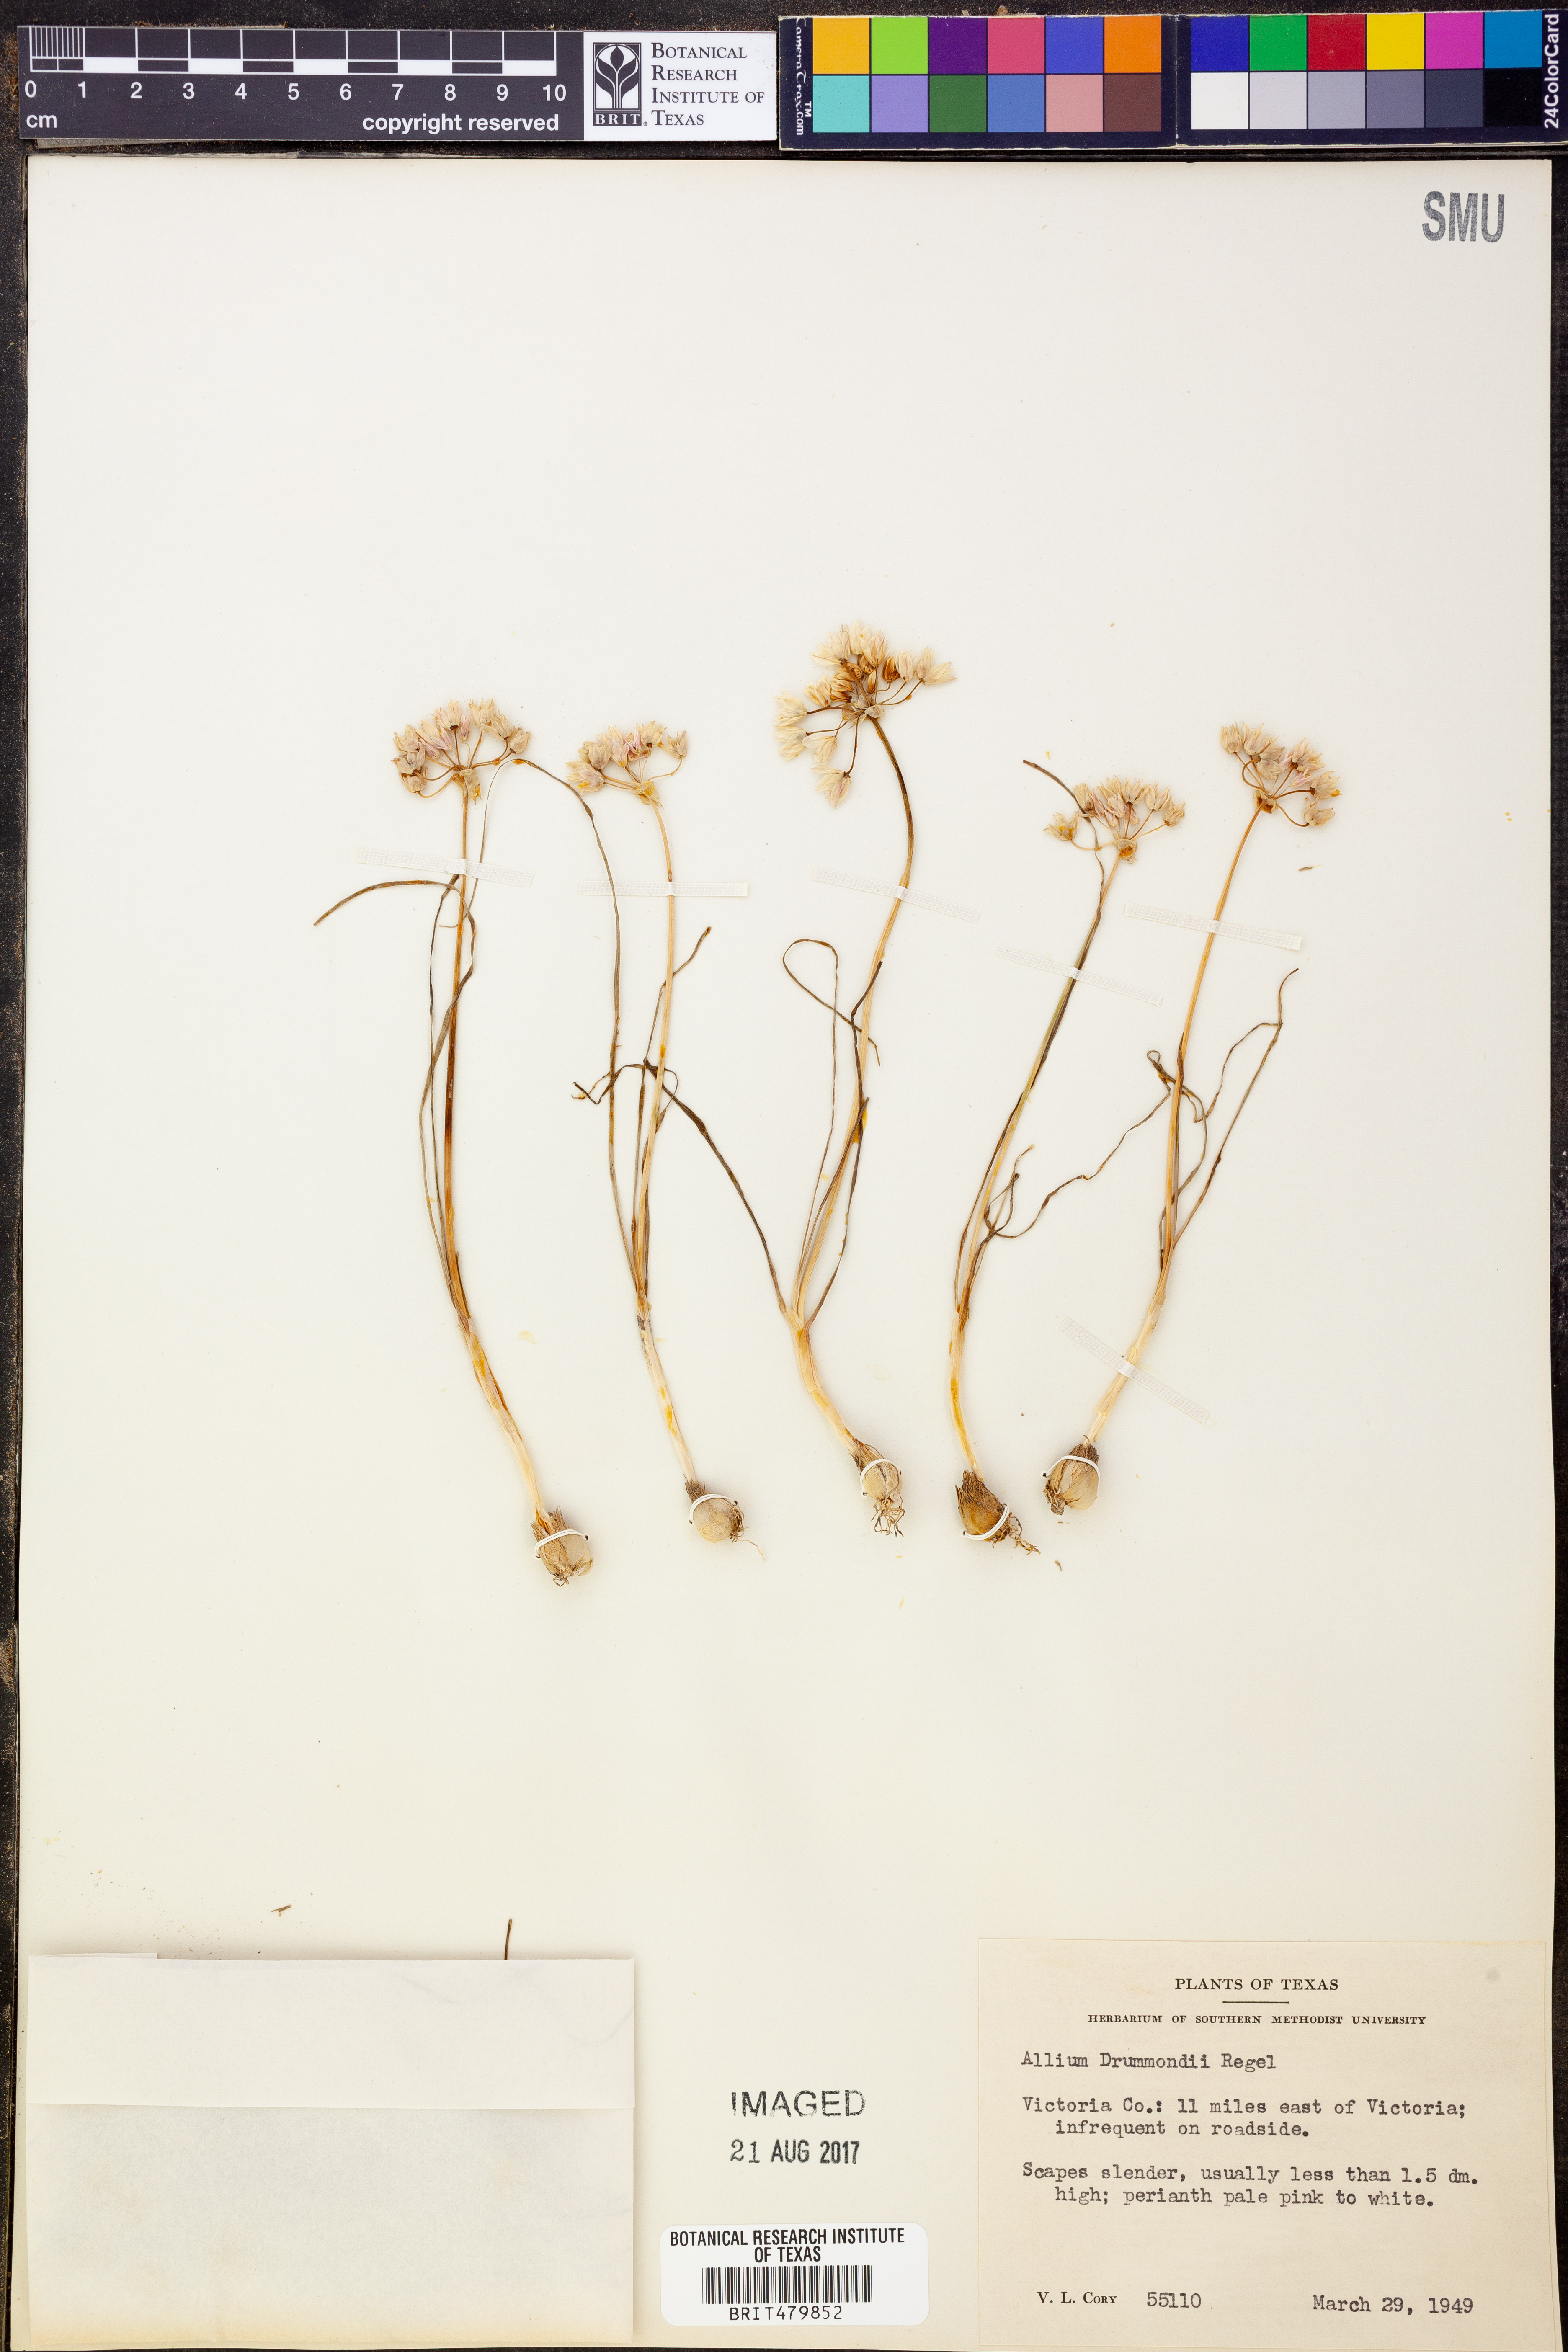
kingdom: Plantae
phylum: Tracheophyta
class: Liliopsida
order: Asparagales
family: Amaryllidaceae
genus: Allium
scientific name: Allium drummondii
